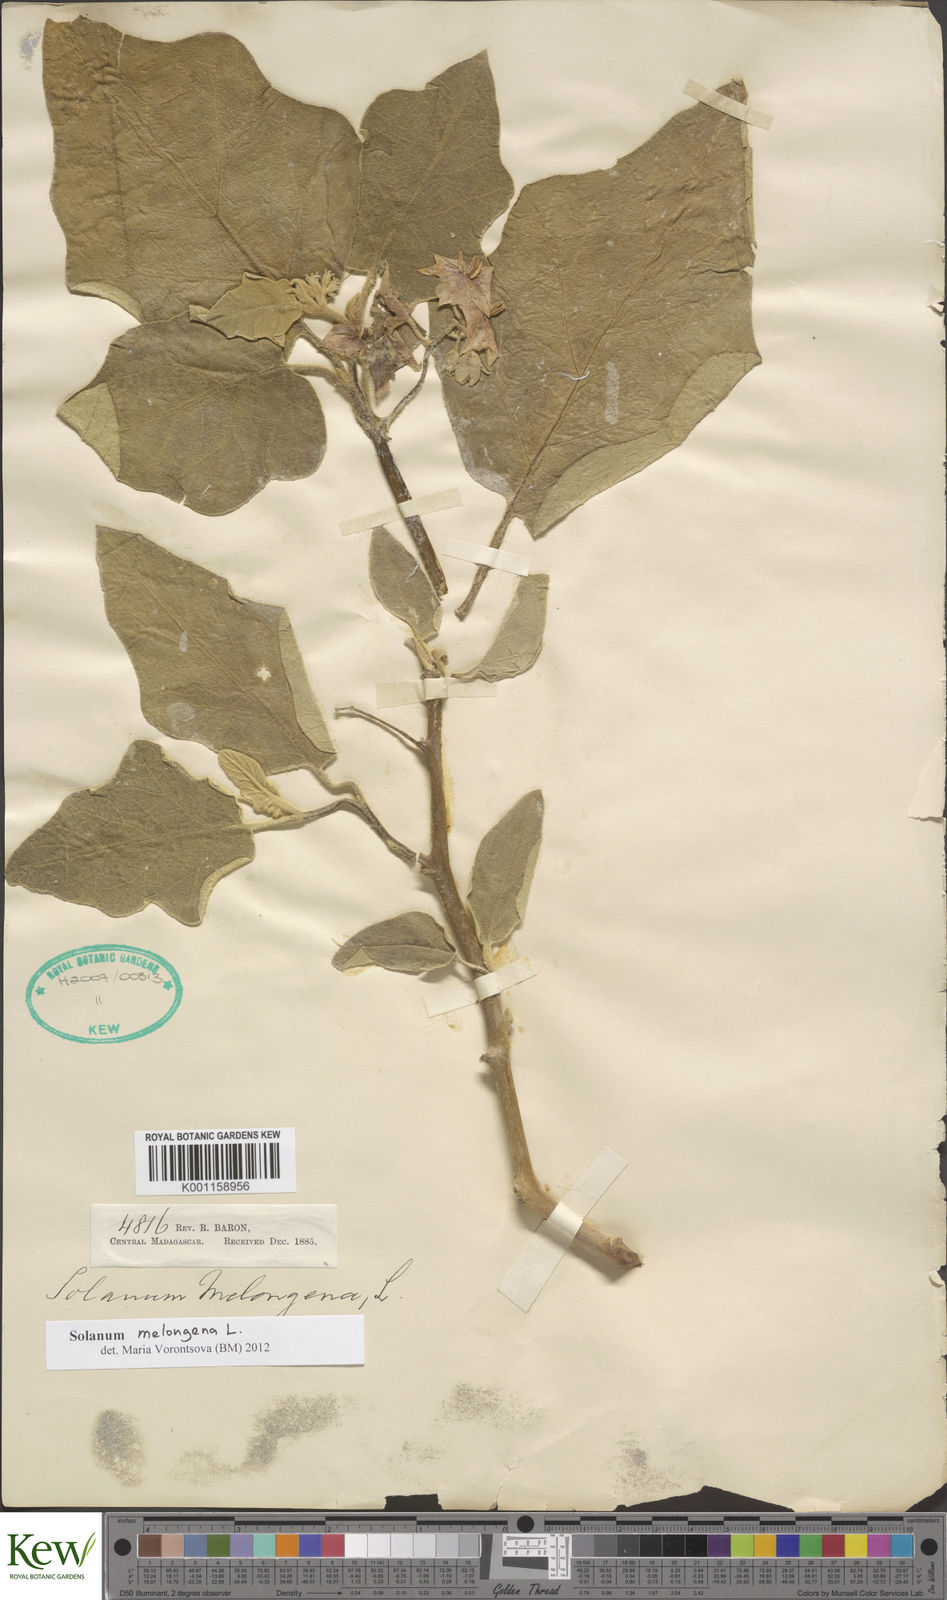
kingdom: Plantae
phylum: Tracheophyta
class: Magnoliopsida
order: Solanales
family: Solanaceae
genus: Solanum
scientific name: Solanum melongena
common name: Eggplant
